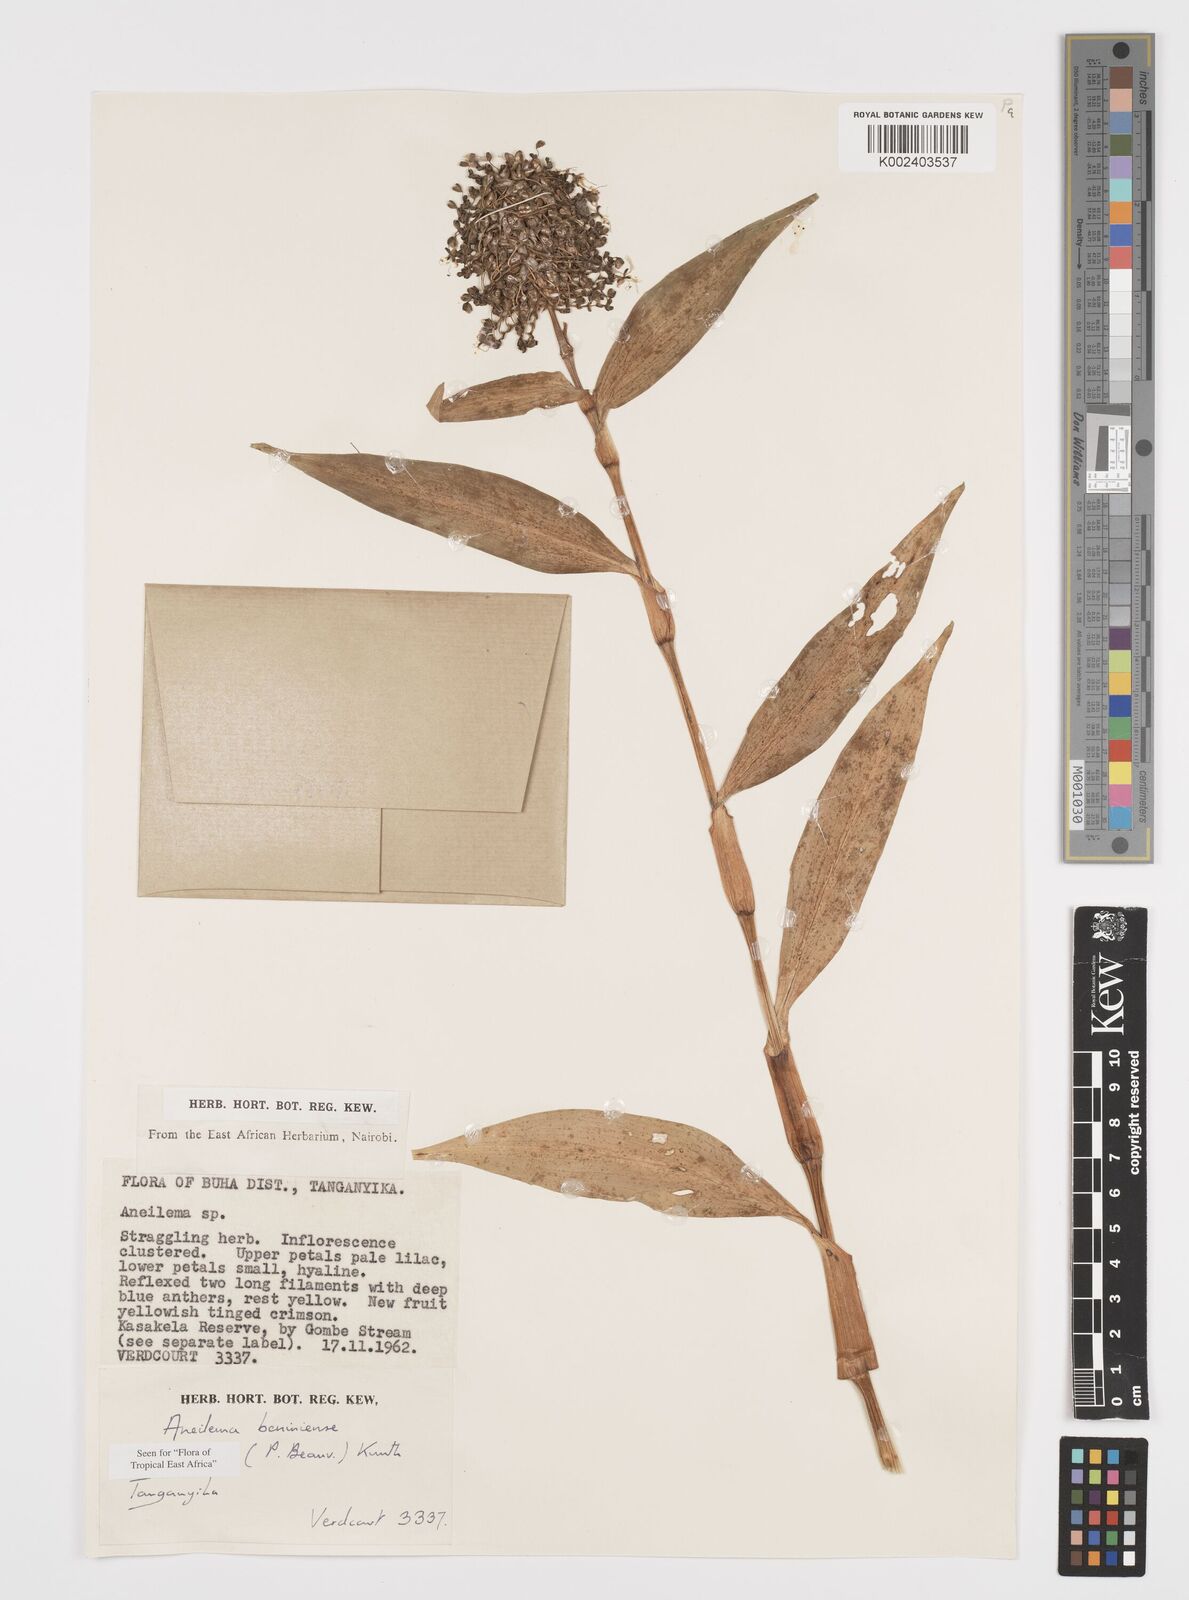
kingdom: Plantae
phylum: Tracheophyta
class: Liliopsida
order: Commelinales
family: Commelinaceae
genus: Aneilema
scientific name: Aneilema beniniense
